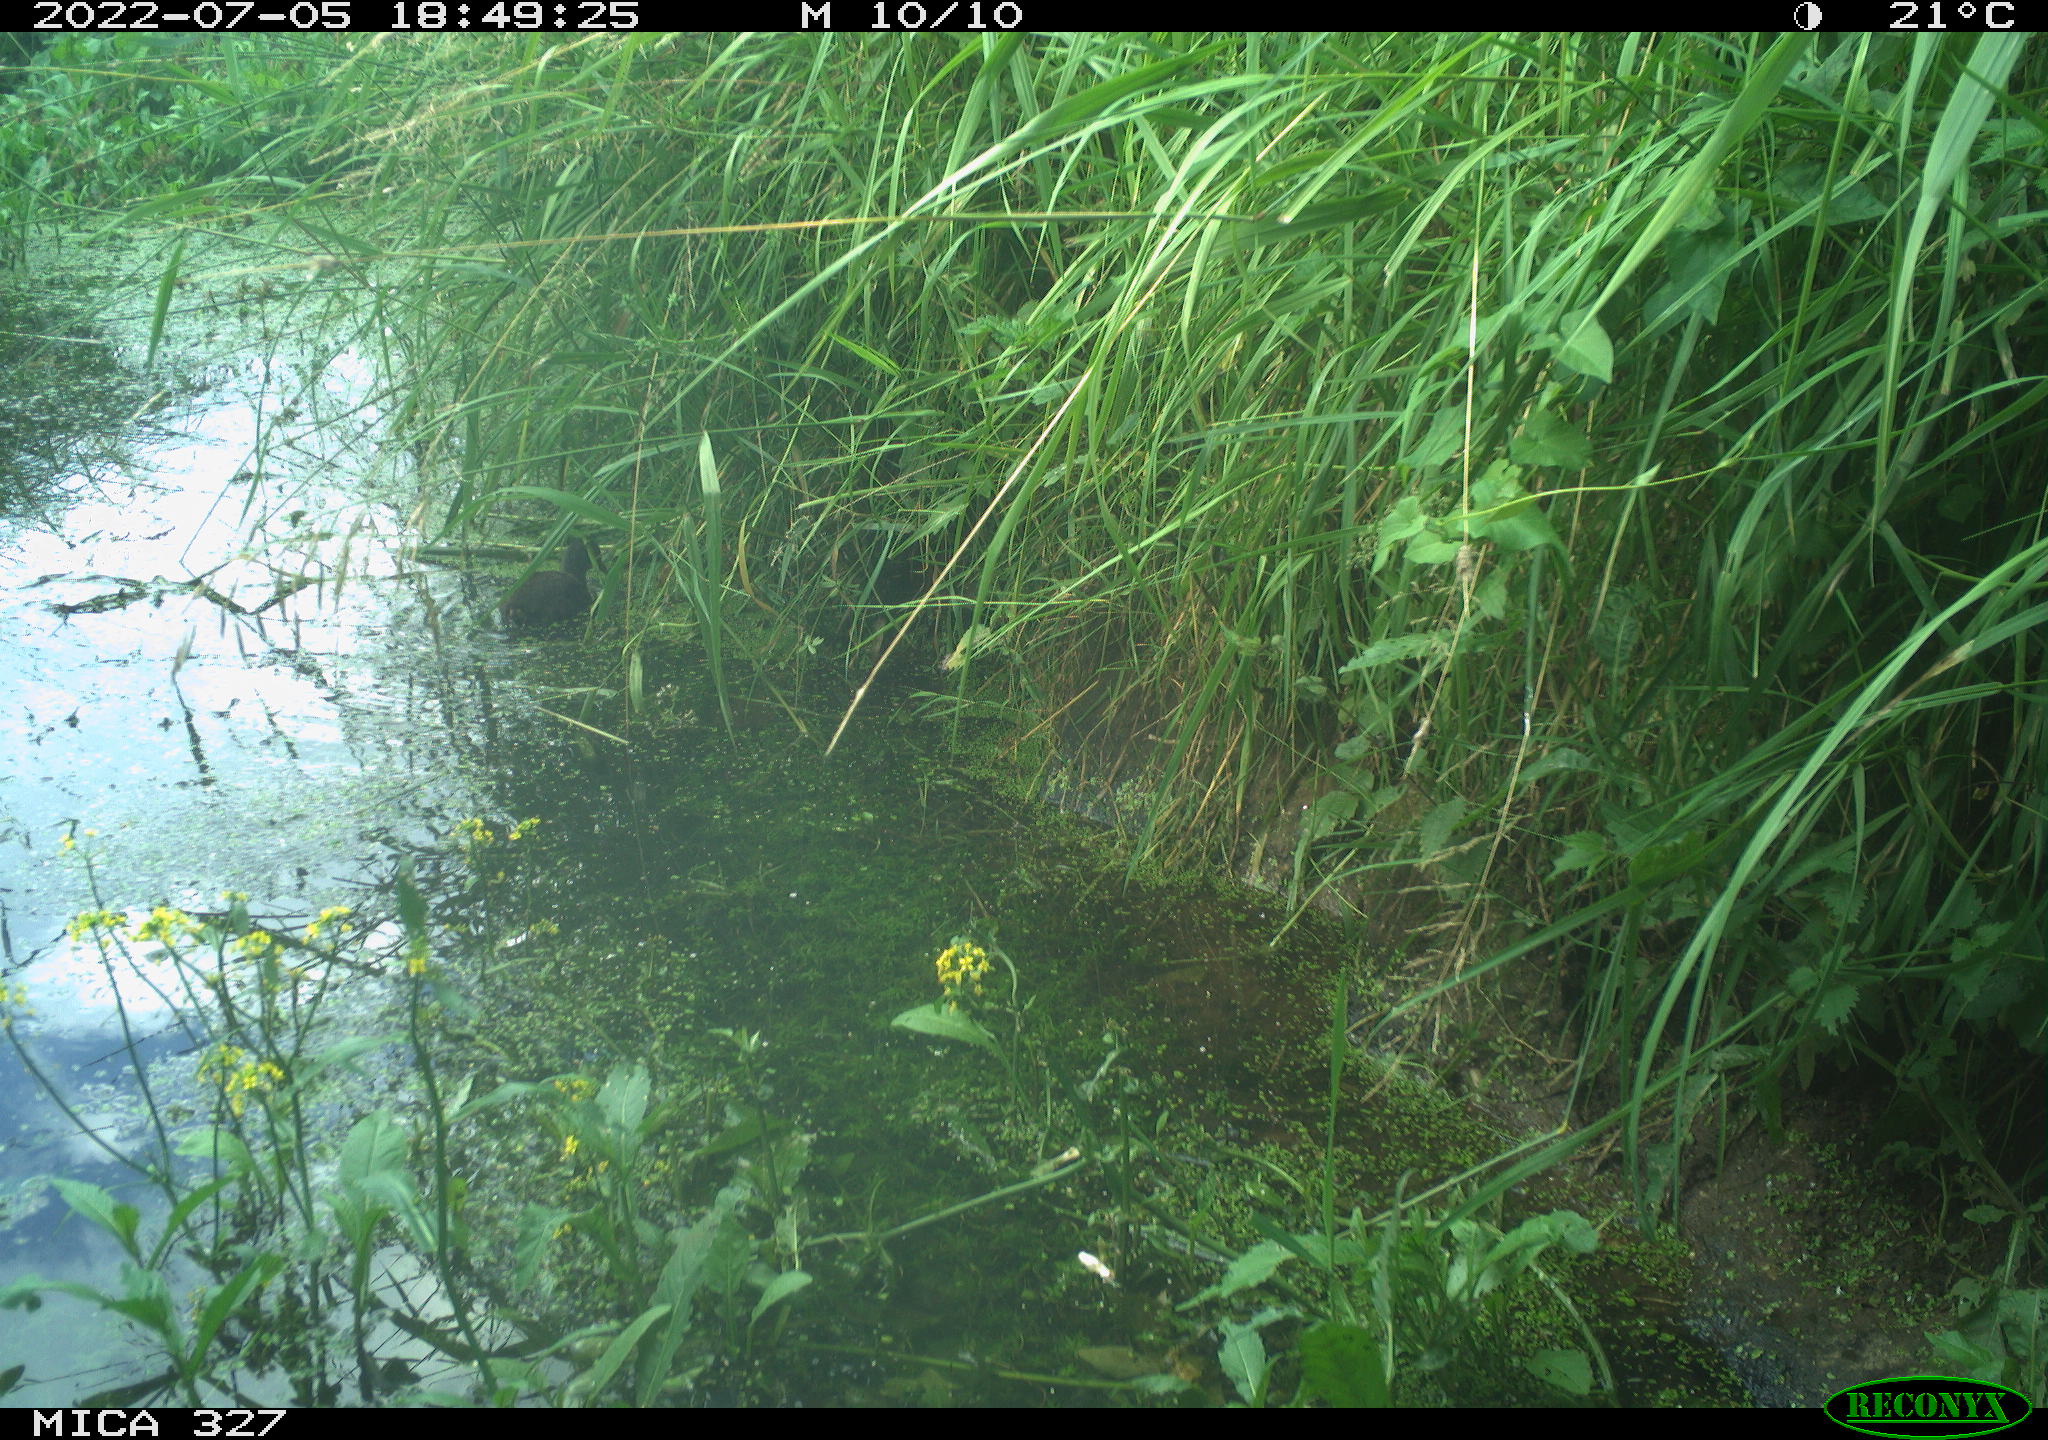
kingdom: Animalia
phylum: Chordata
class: Aves
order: Gruiformes
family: Rallidae
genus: Gallinula
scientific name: Gallinula chloropus
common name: Common moorhen
